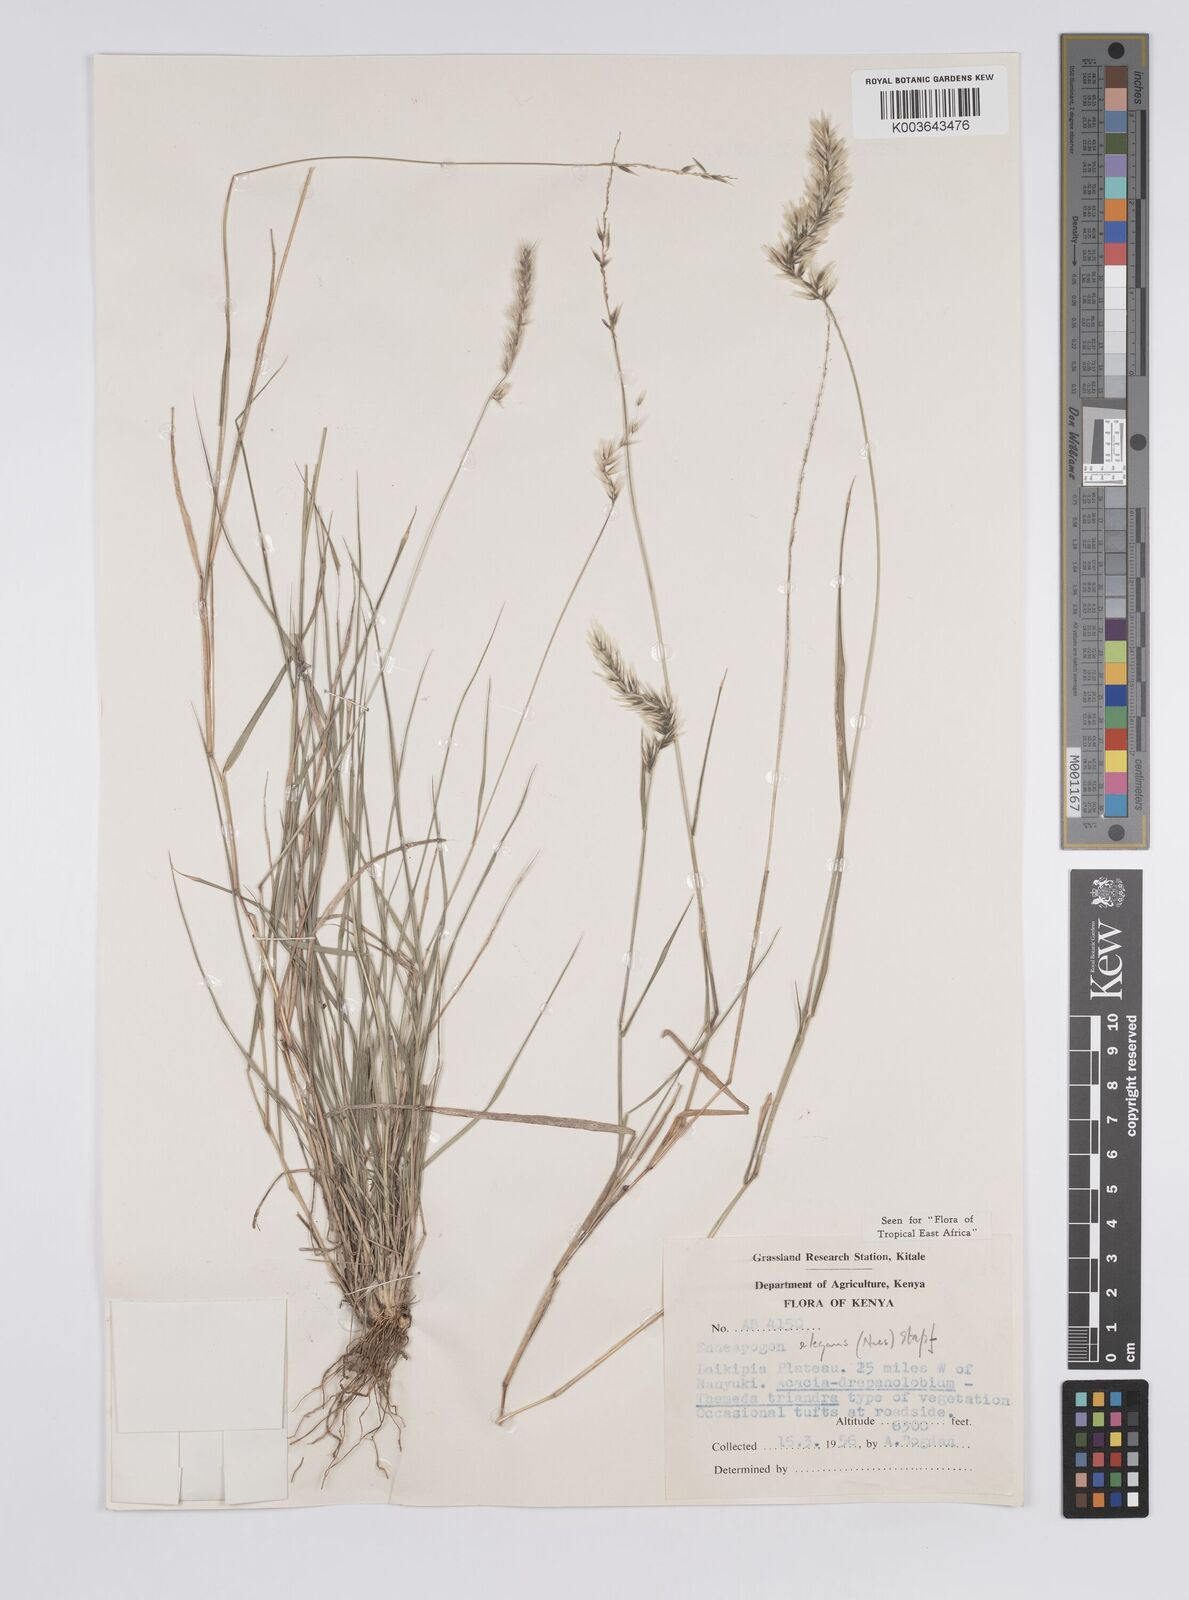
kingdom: Plantae
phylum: Tracheophyta
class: Liliopsida
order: Poales
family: Poaceae
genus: Enneapogon
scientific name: Enneapogon persicus
